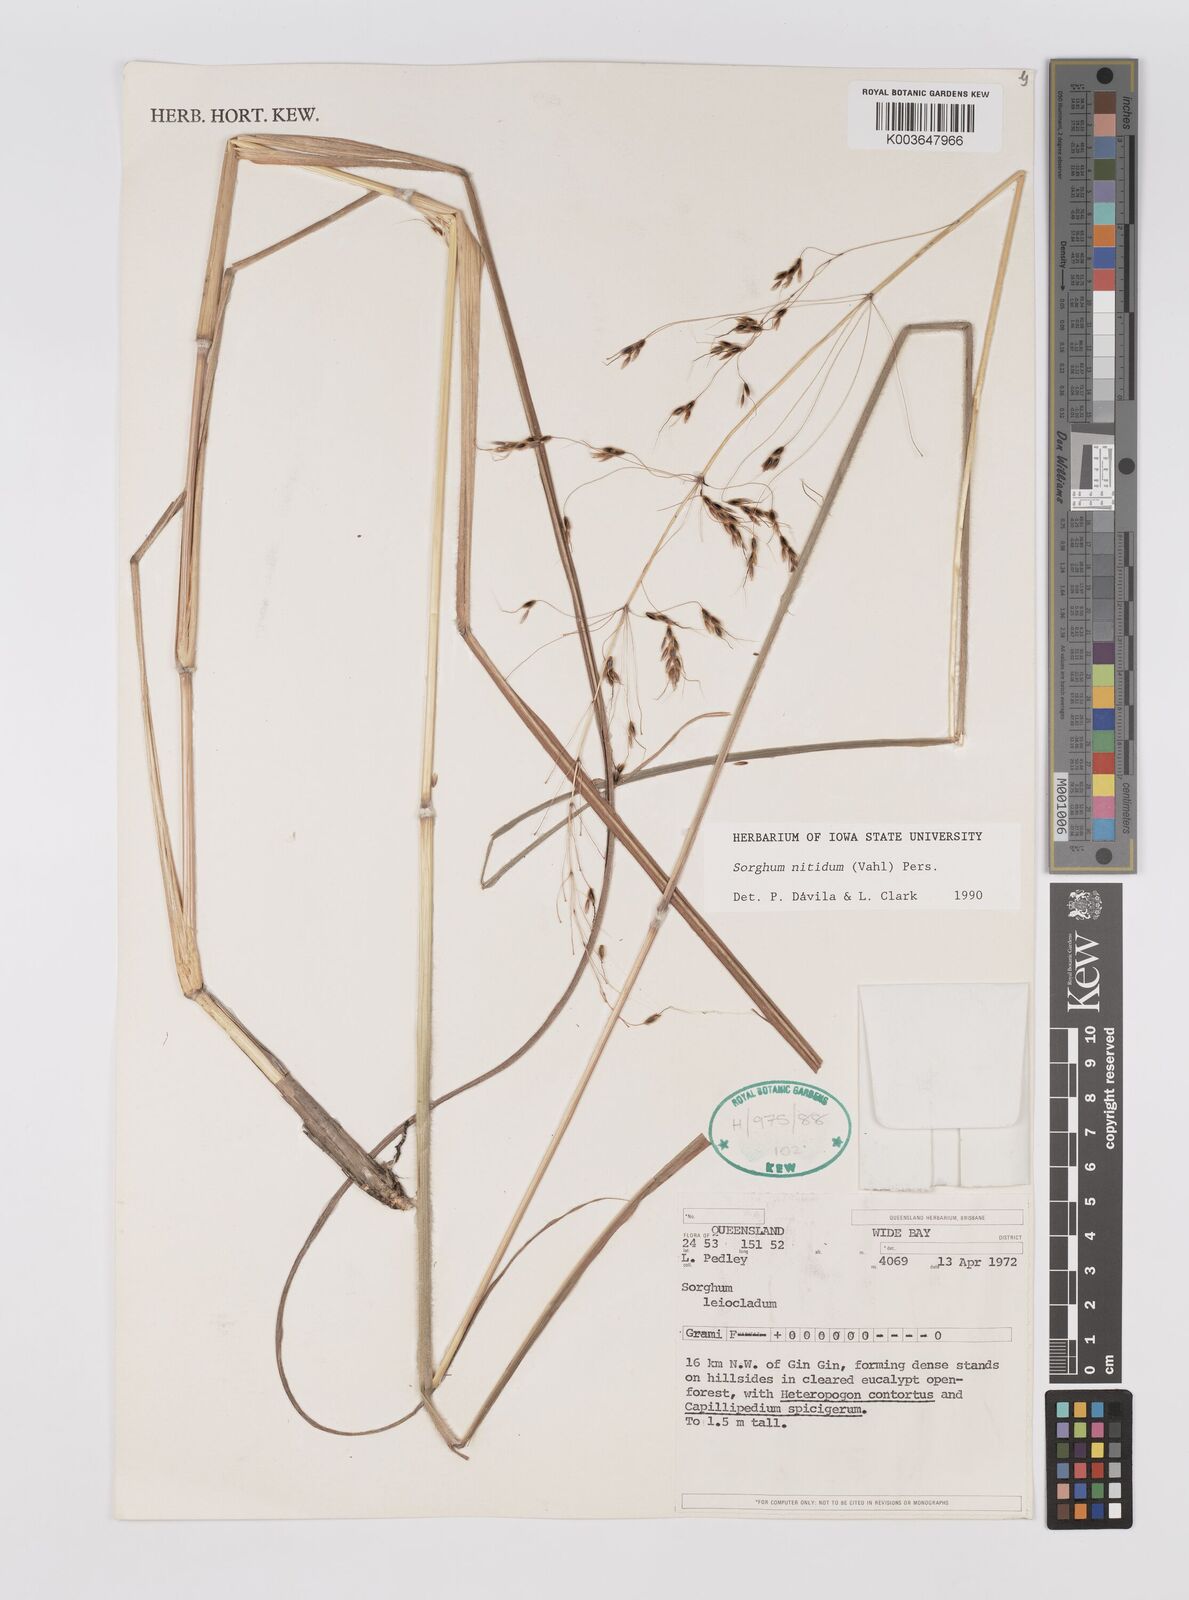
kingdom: Plantae
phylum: Tracheophyta
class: Liliopsida
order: Poales
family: Poaceae
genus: Sorghum
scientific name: Sorghum nitidum
